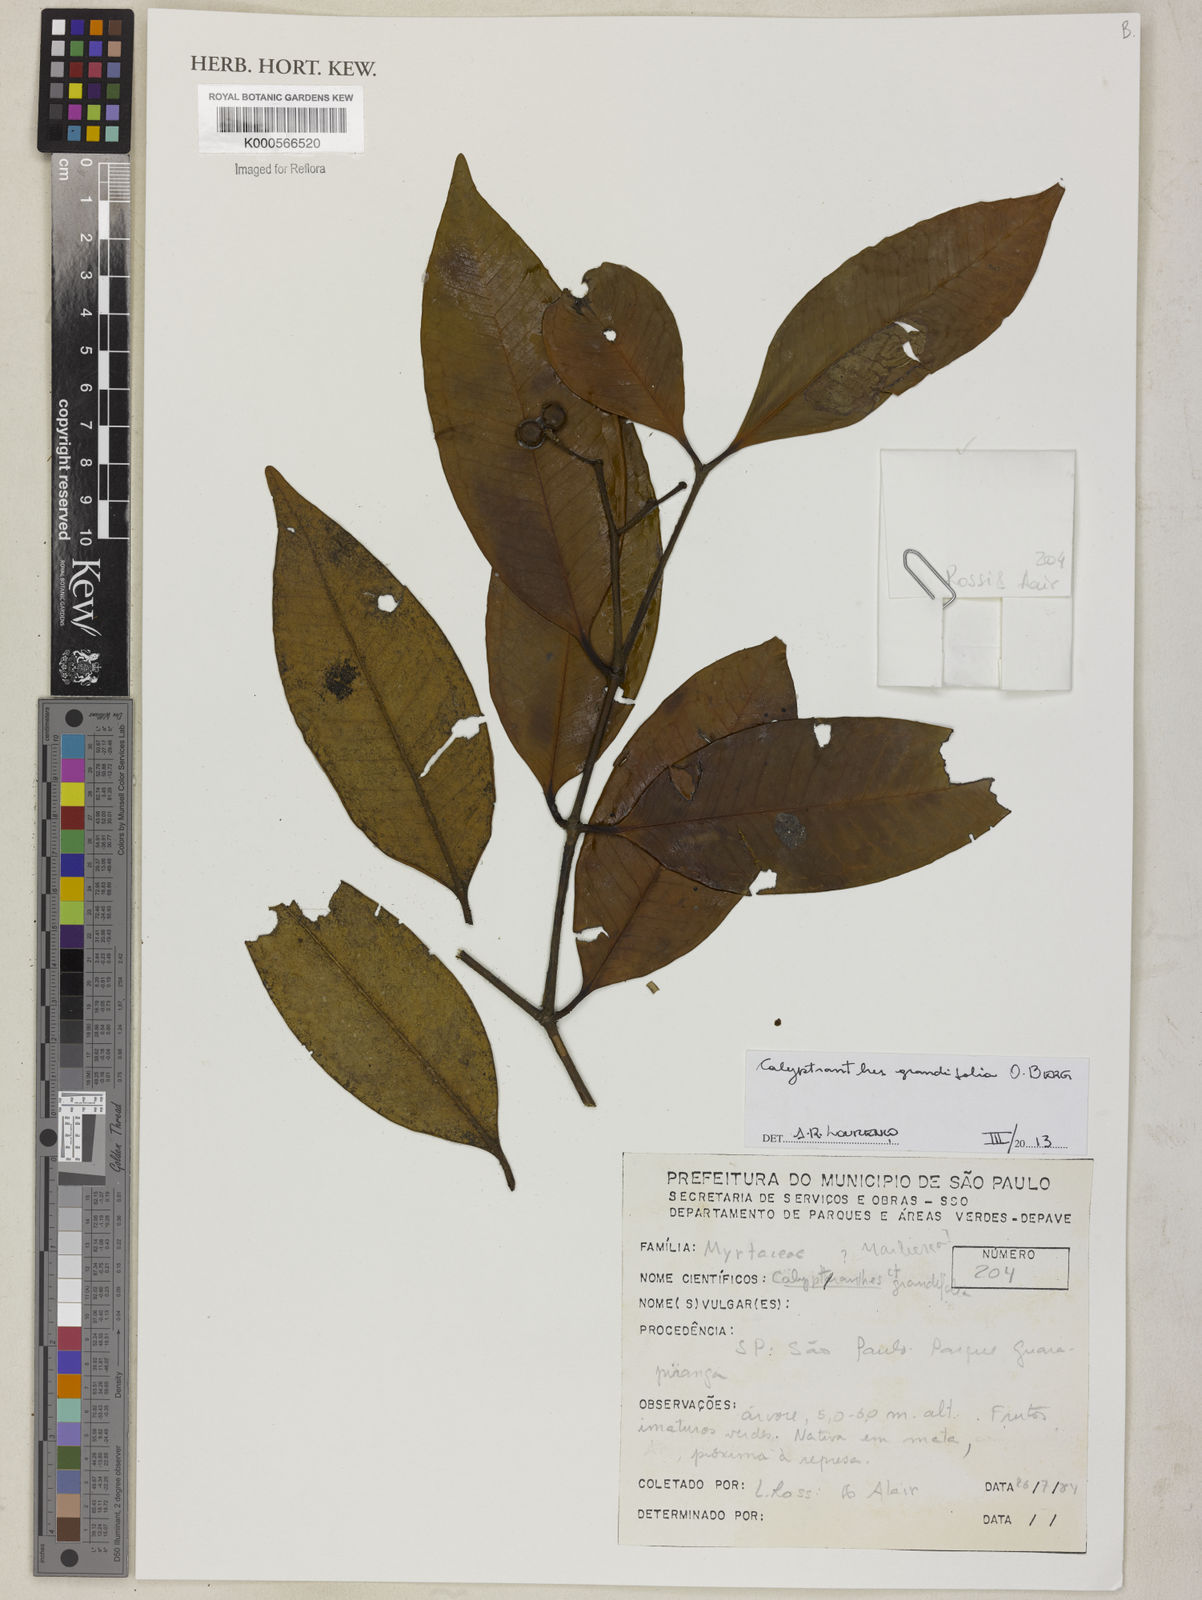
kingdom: Plantae
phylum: Tracheophyta
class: Magnoliopsida
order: Myrtales
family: Myrtaceae
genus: Calyptranthes
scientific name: Calyptranthes grandifolia
